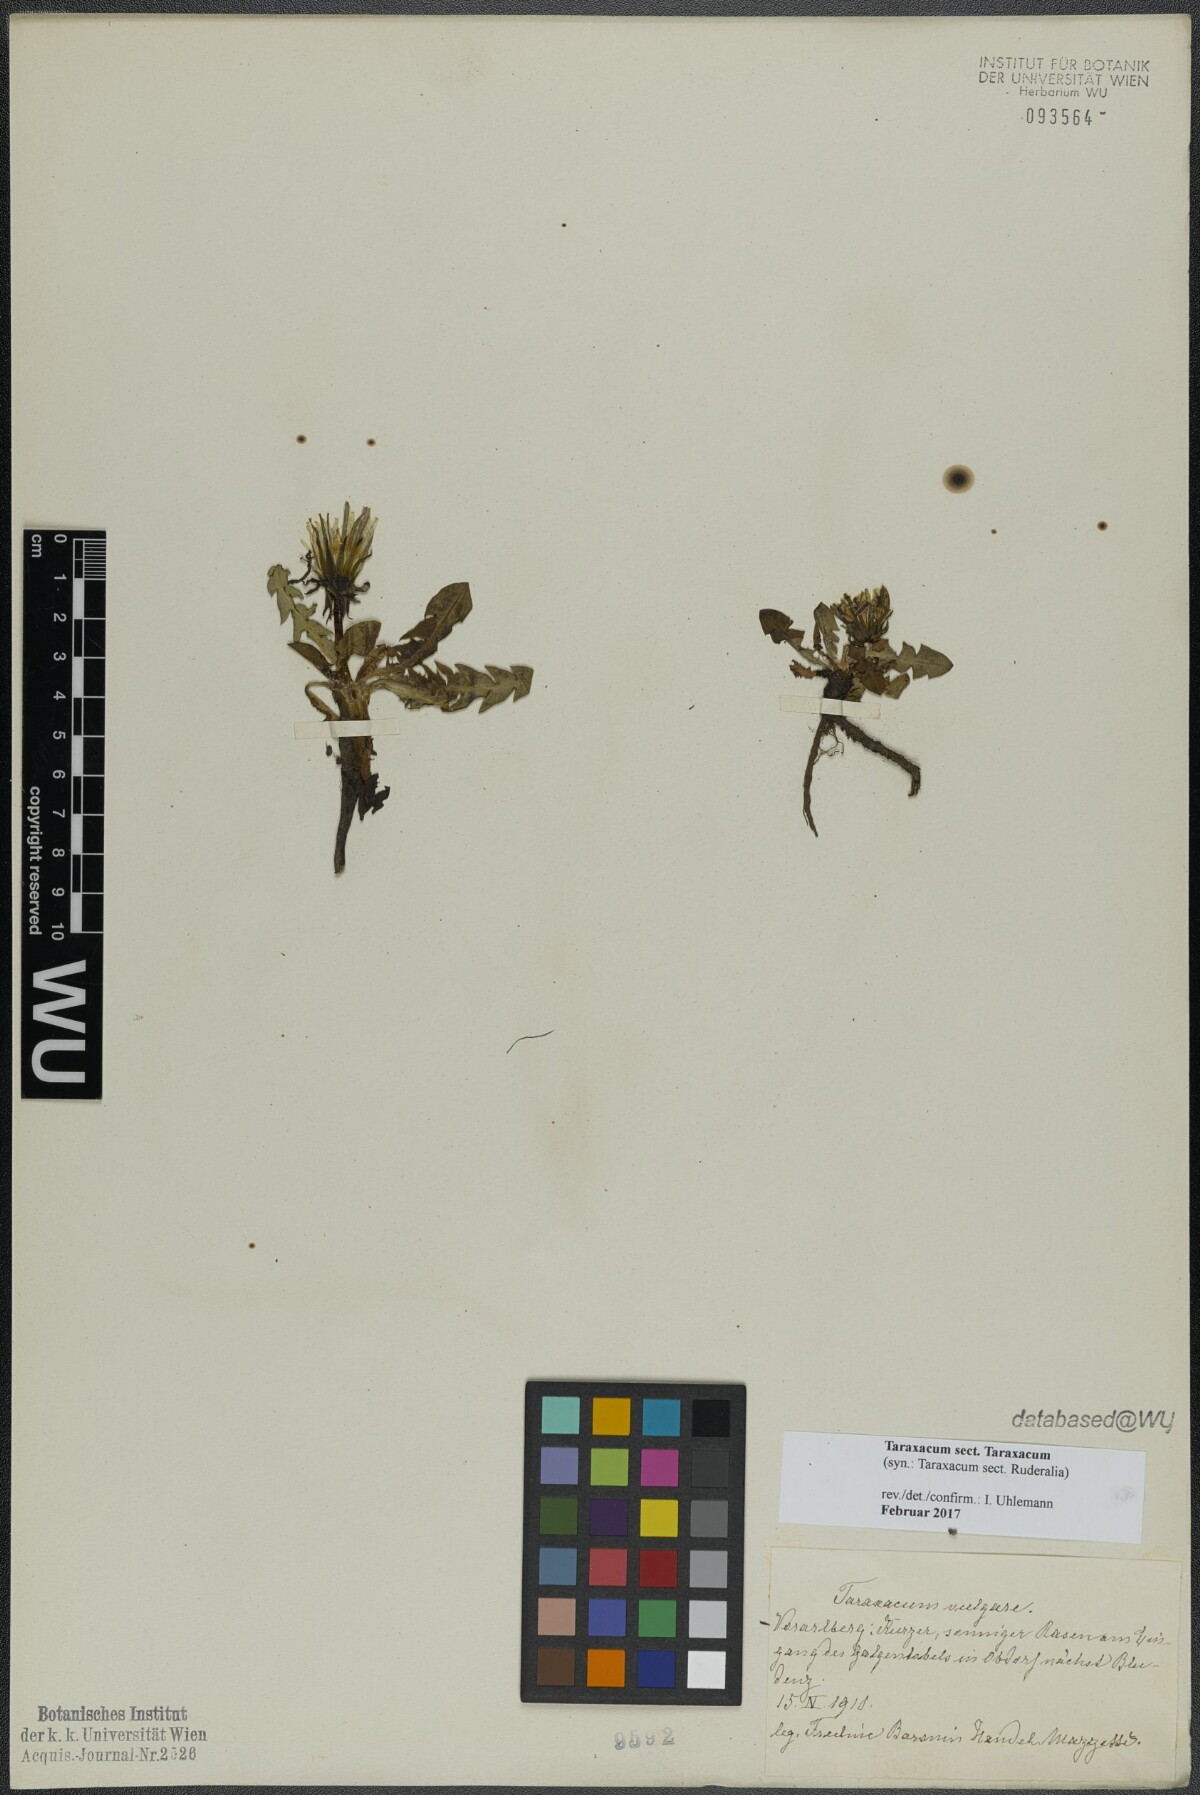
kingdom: Plantae
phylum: Tracheophyta
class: Magnoliopsida
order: Asterales
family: Asteraceae
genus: Taraxacum
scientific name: Taraxacum
